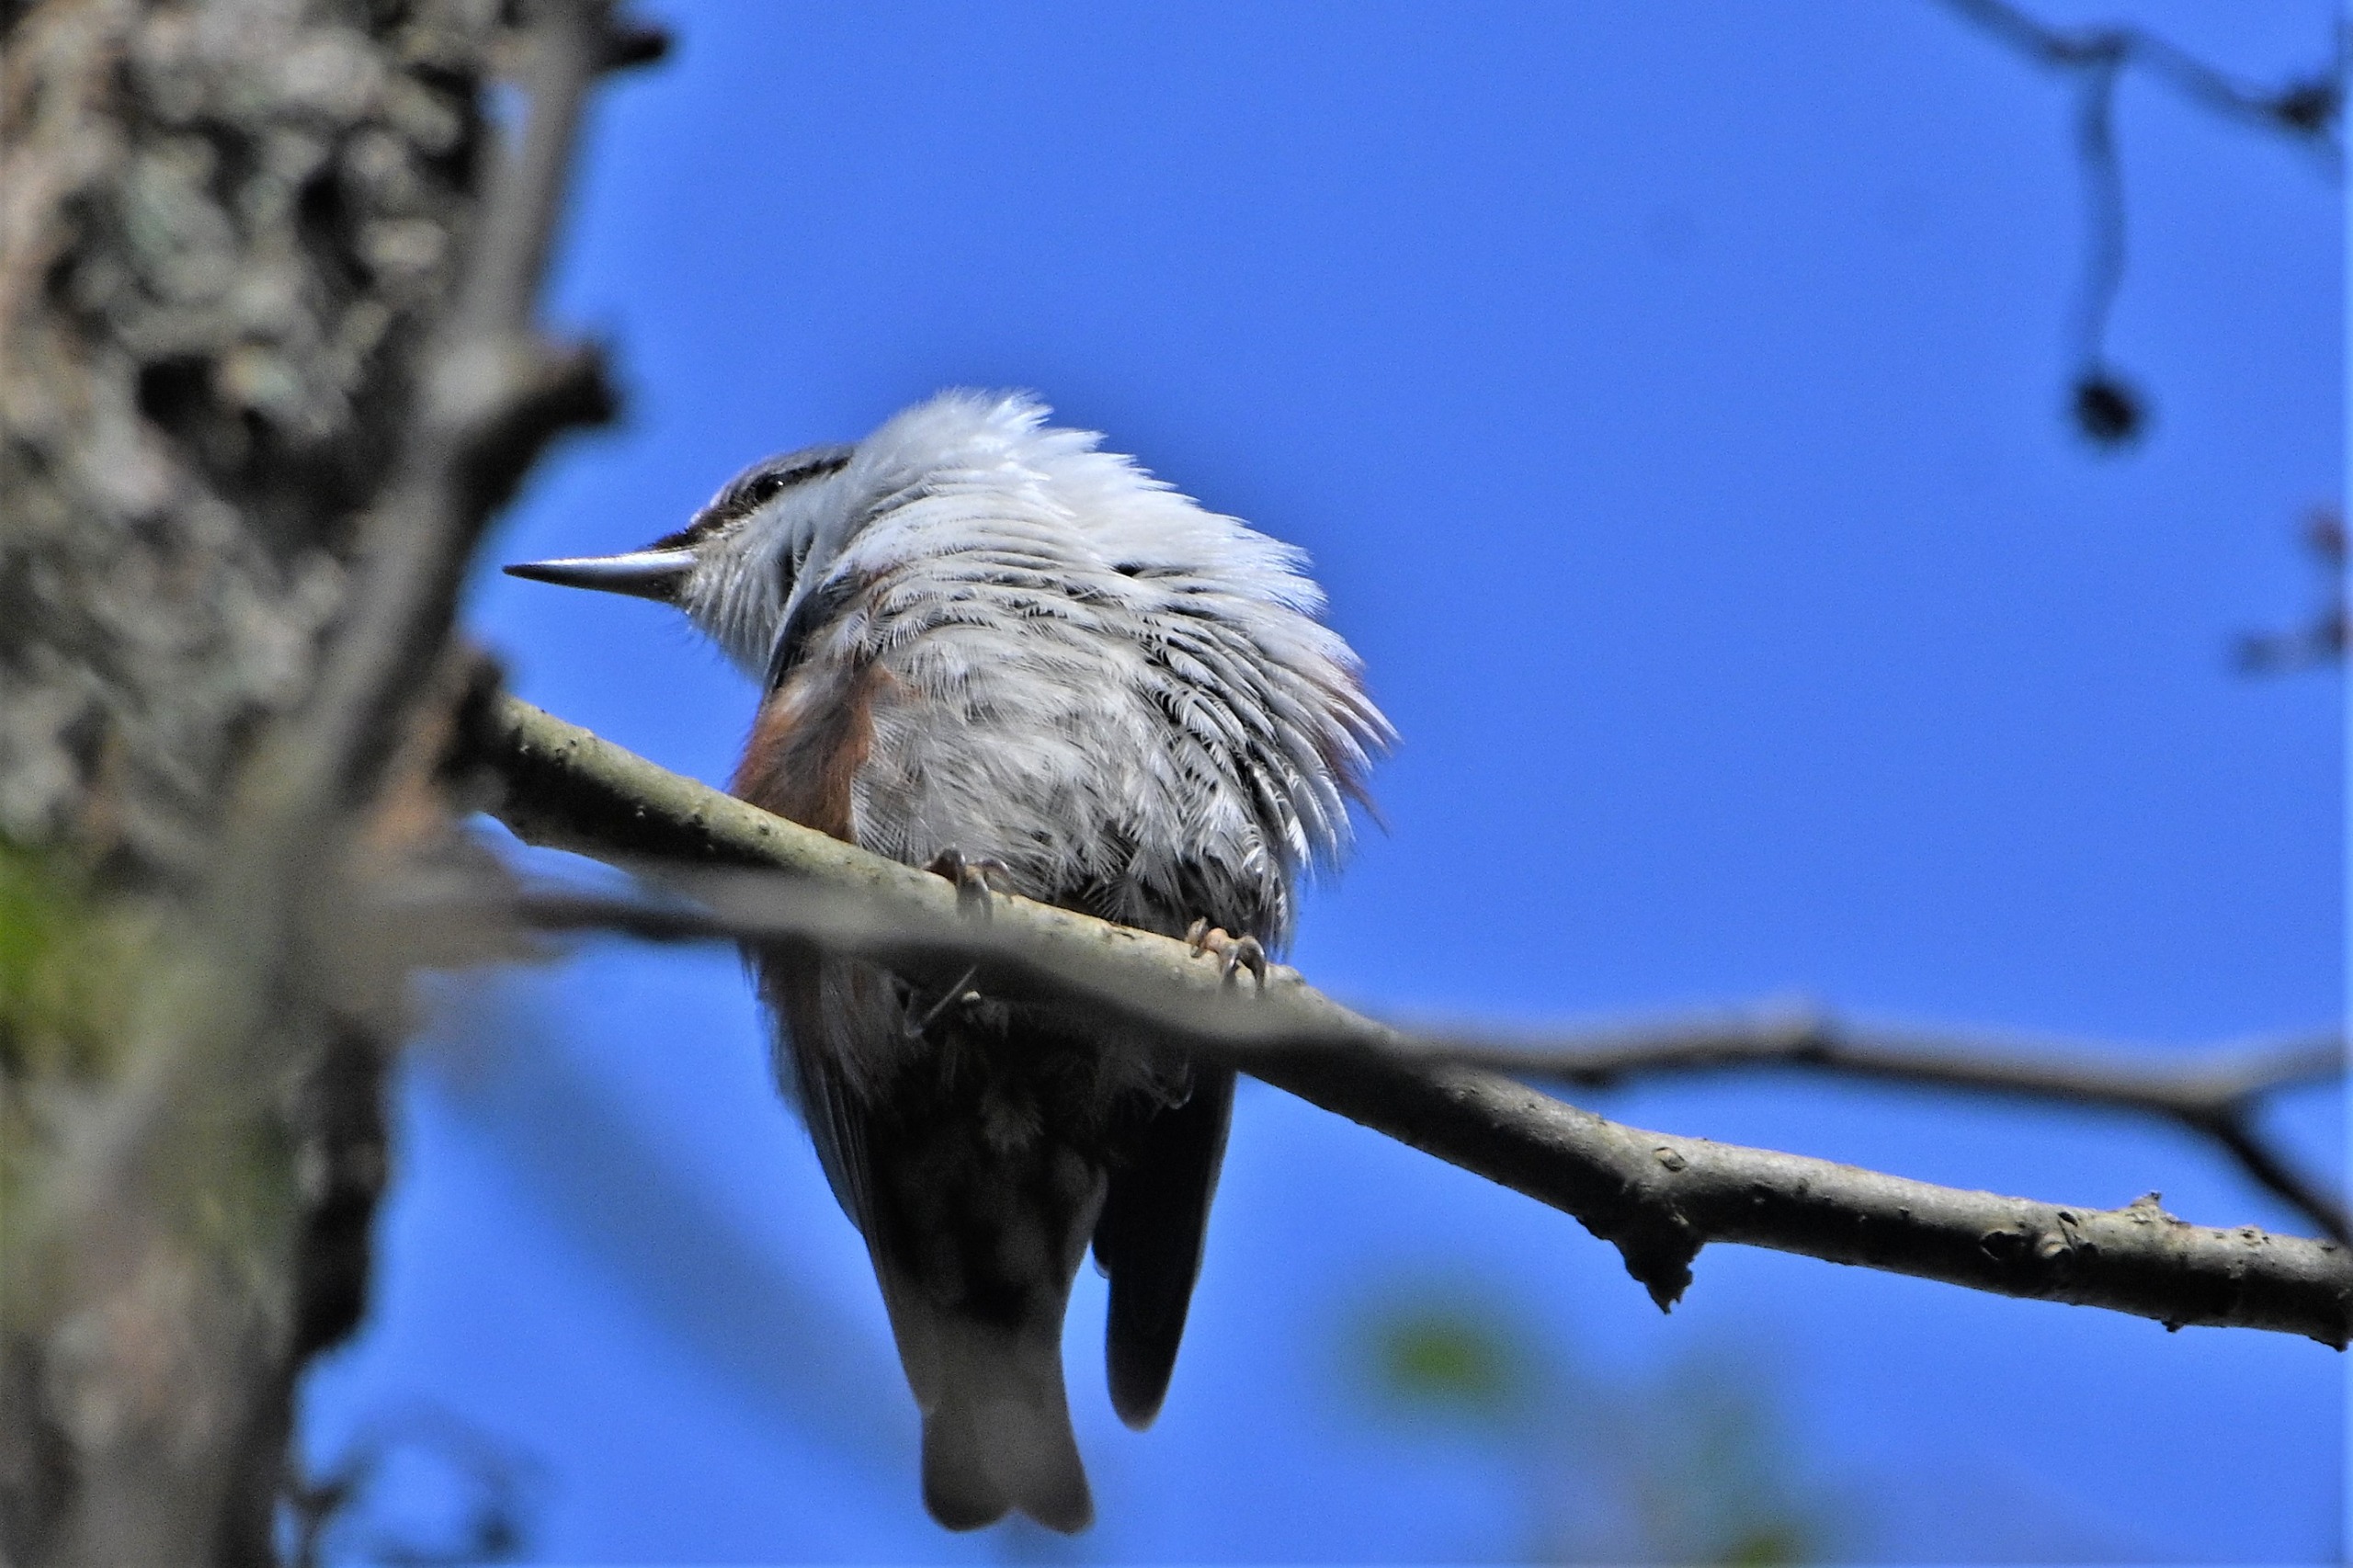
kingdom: Animalia
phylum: Chordata
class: Aves
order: Passeriformes
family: Sittidae
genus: Sitta
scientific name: Sitta europaea
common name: Spætmejse
